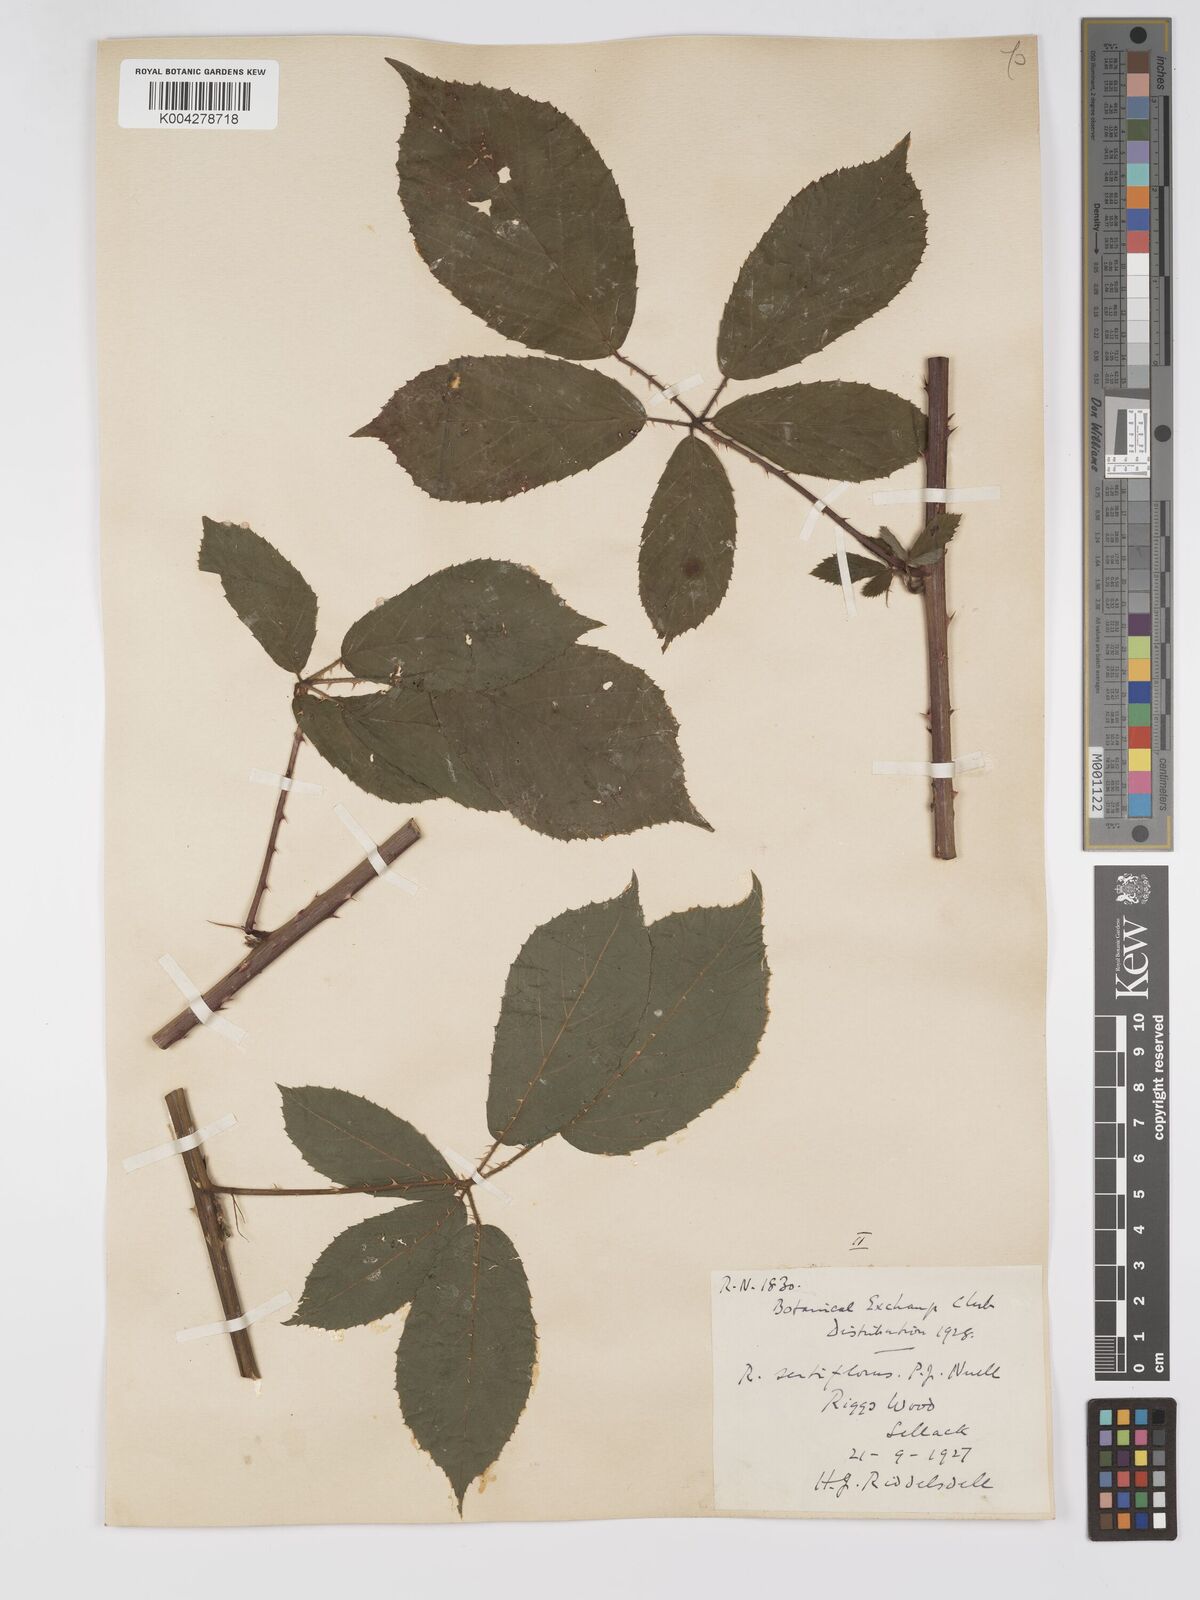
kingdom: Plantae
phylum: Tracheophyta
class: Magnoliopsida
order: Rosales
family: Rosaceae
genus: Rubus
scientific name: Rubus
